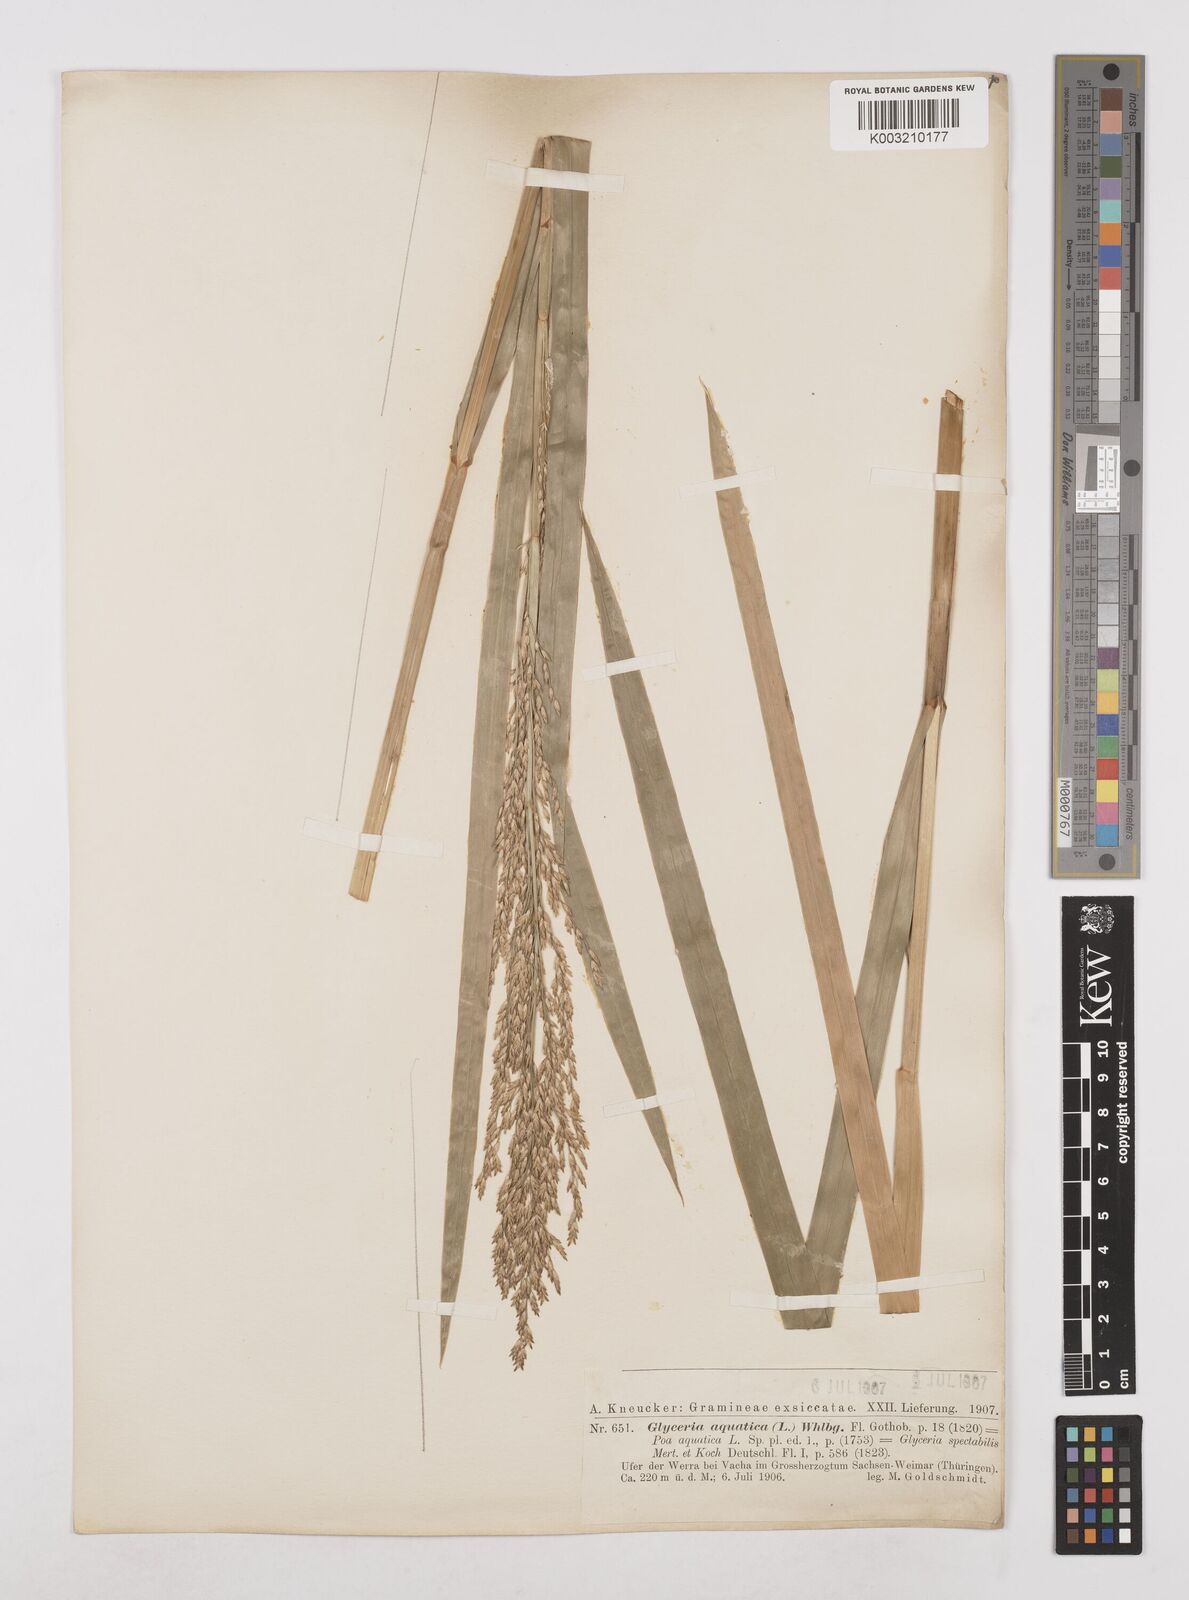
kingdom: Plantae
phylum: Tracheophyta
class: Liliopsida
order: Poales
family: Poaceae
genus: Glyceria
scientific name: Glyceria maxima
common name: Reed mannagrass
